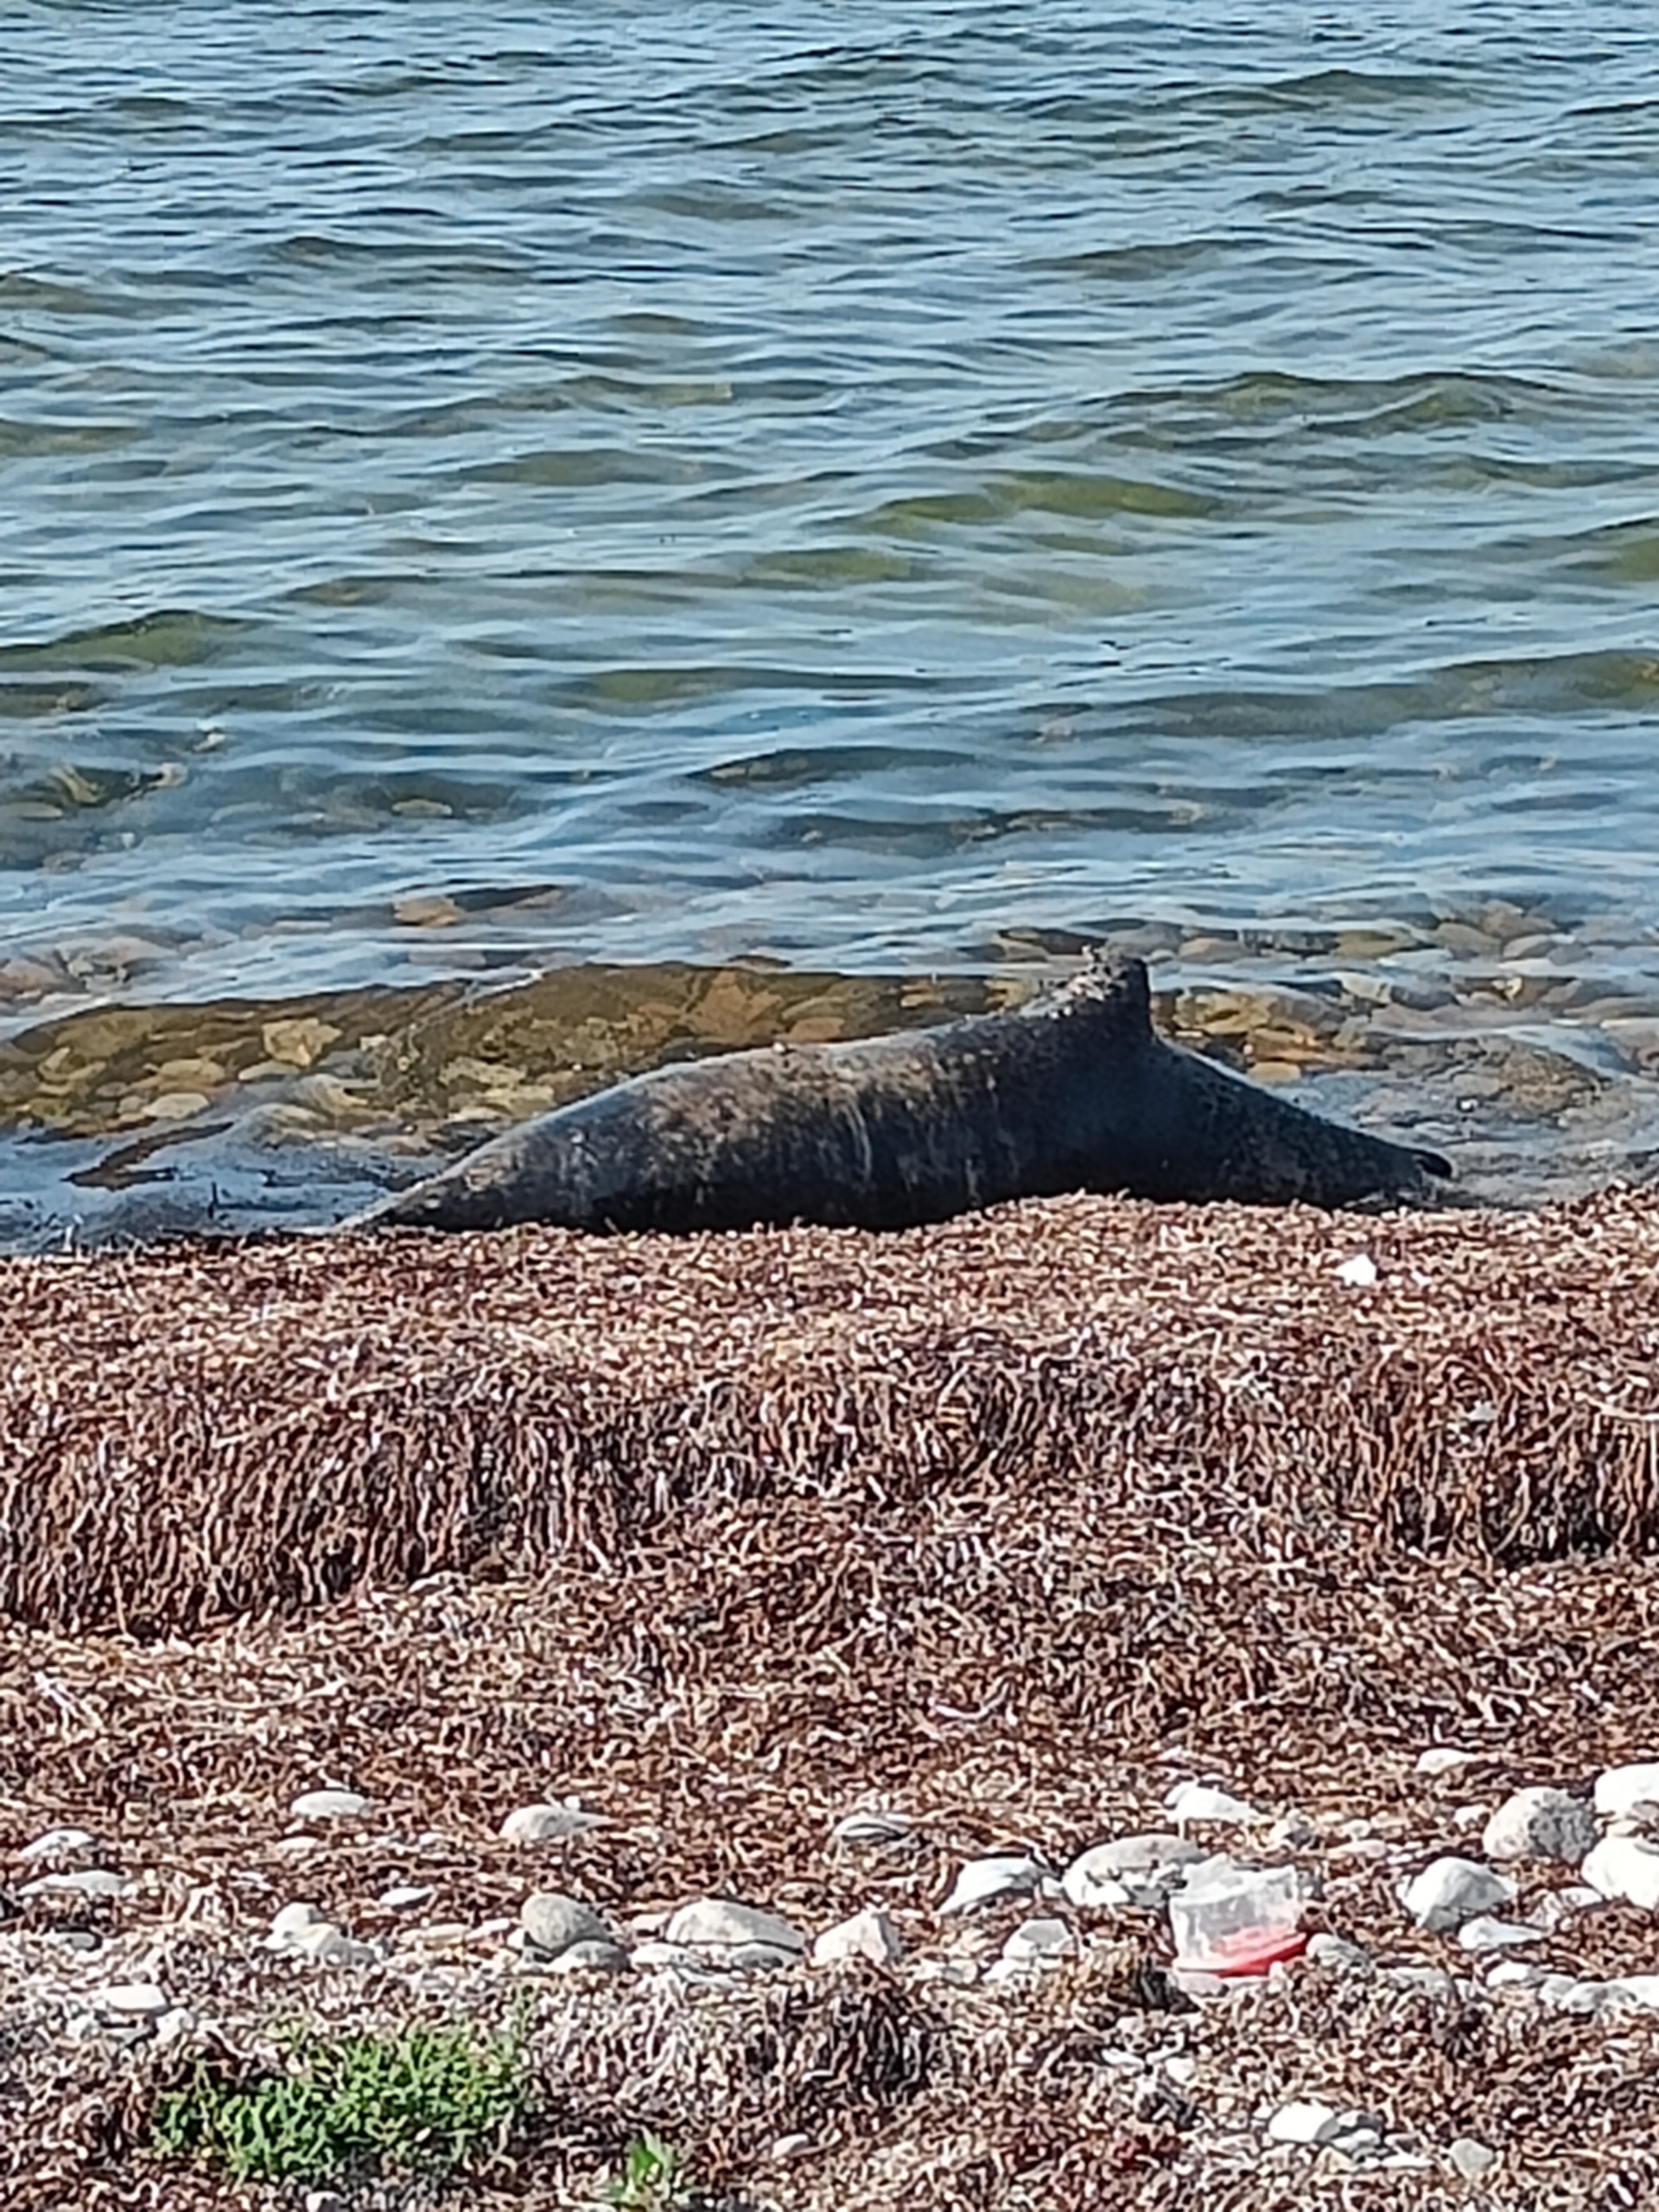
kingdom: Animalia
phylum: Chordata
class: Mammalia
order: Carnivora
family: Phocidae
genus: Phoca
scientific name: Phoca vitulina
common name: Spættet sæl
